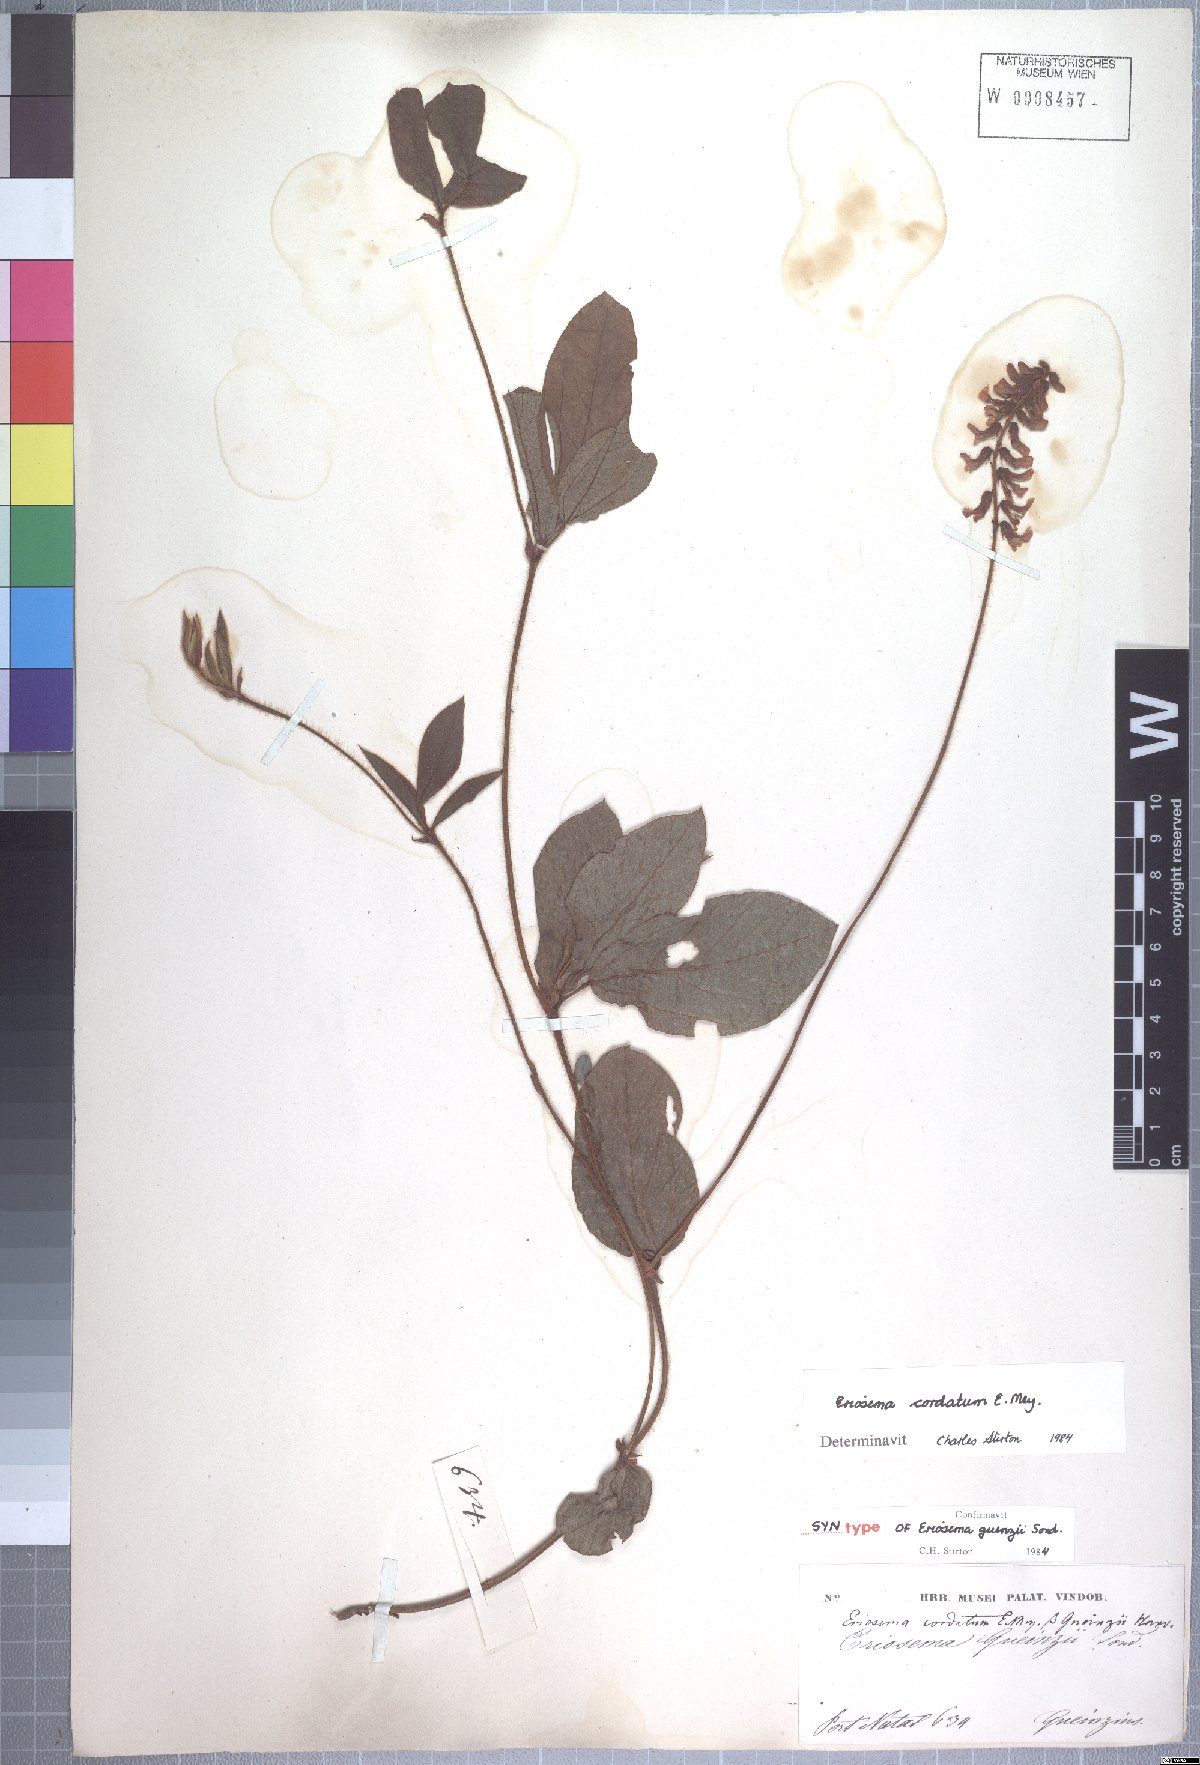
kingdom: Plantae
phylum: Tracheophyta
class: Magnoliopsida
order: Fabales
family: Fabaceae
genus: Eriosema
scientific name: Eriosema cordatum
